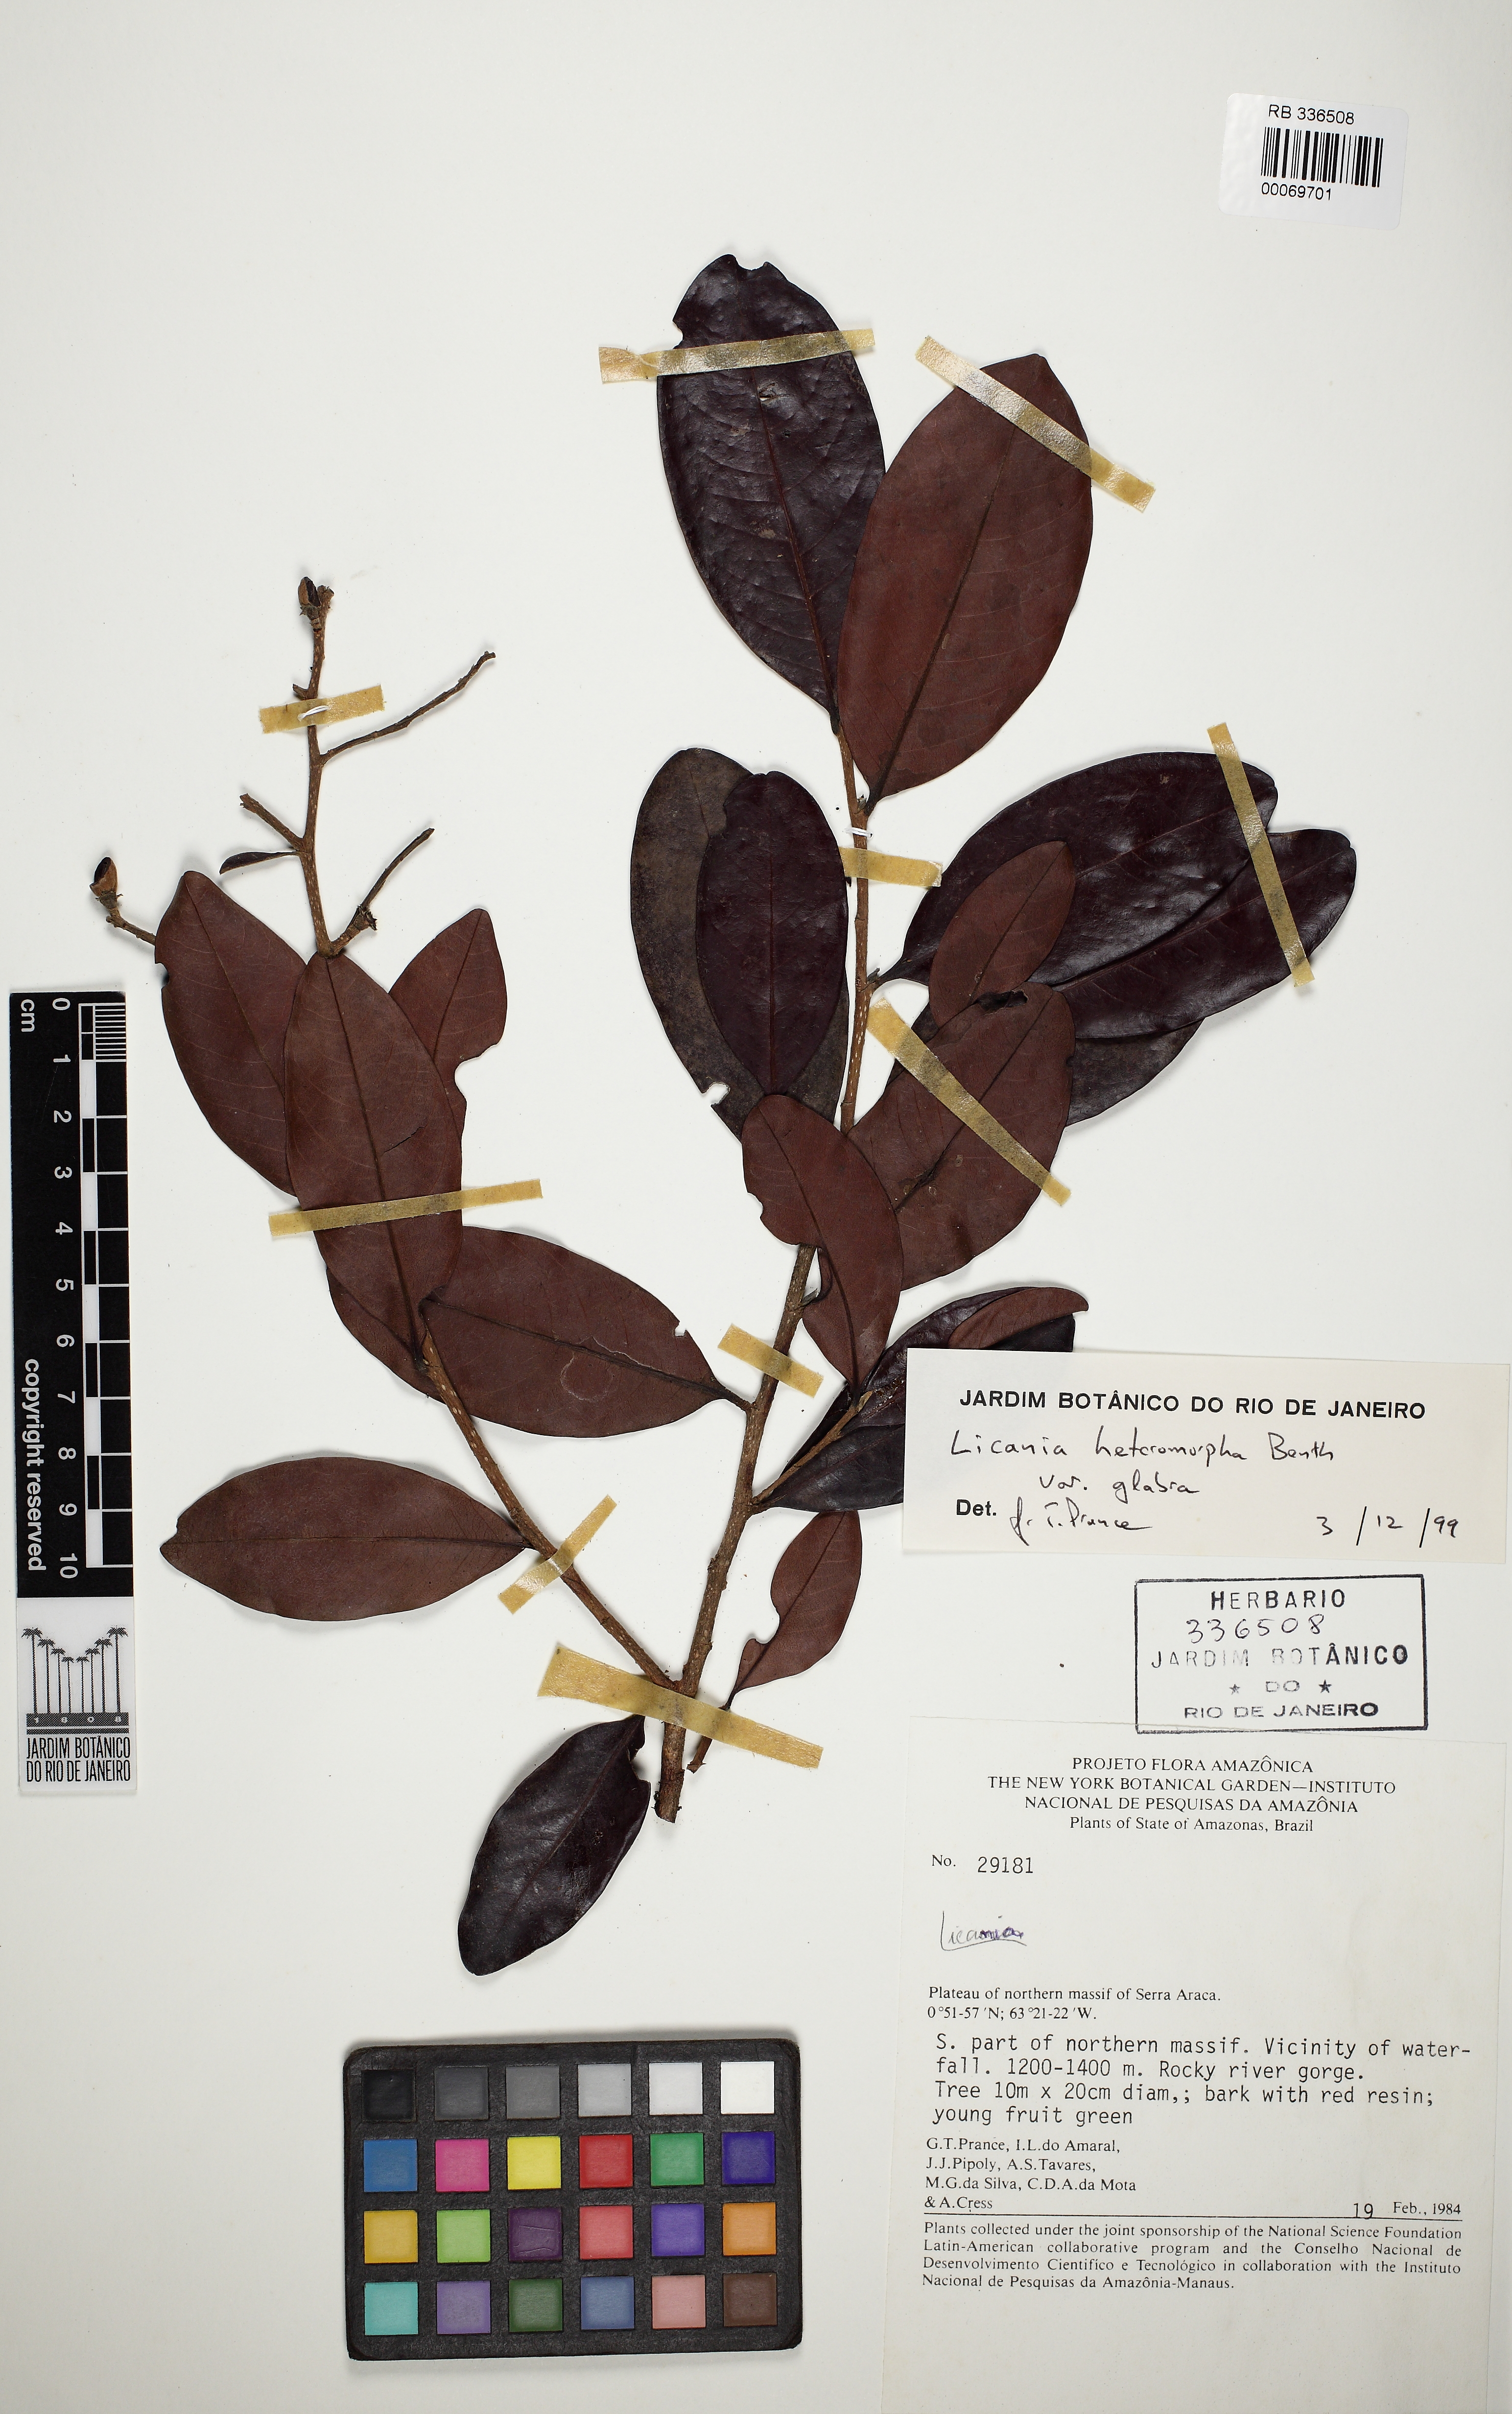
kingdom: Plantae
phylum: Tracheophyta
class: Magnoliopsida
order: Malpighiales
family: Chrysobalanaceae
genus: Licania
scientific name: Licania heteromorpha
